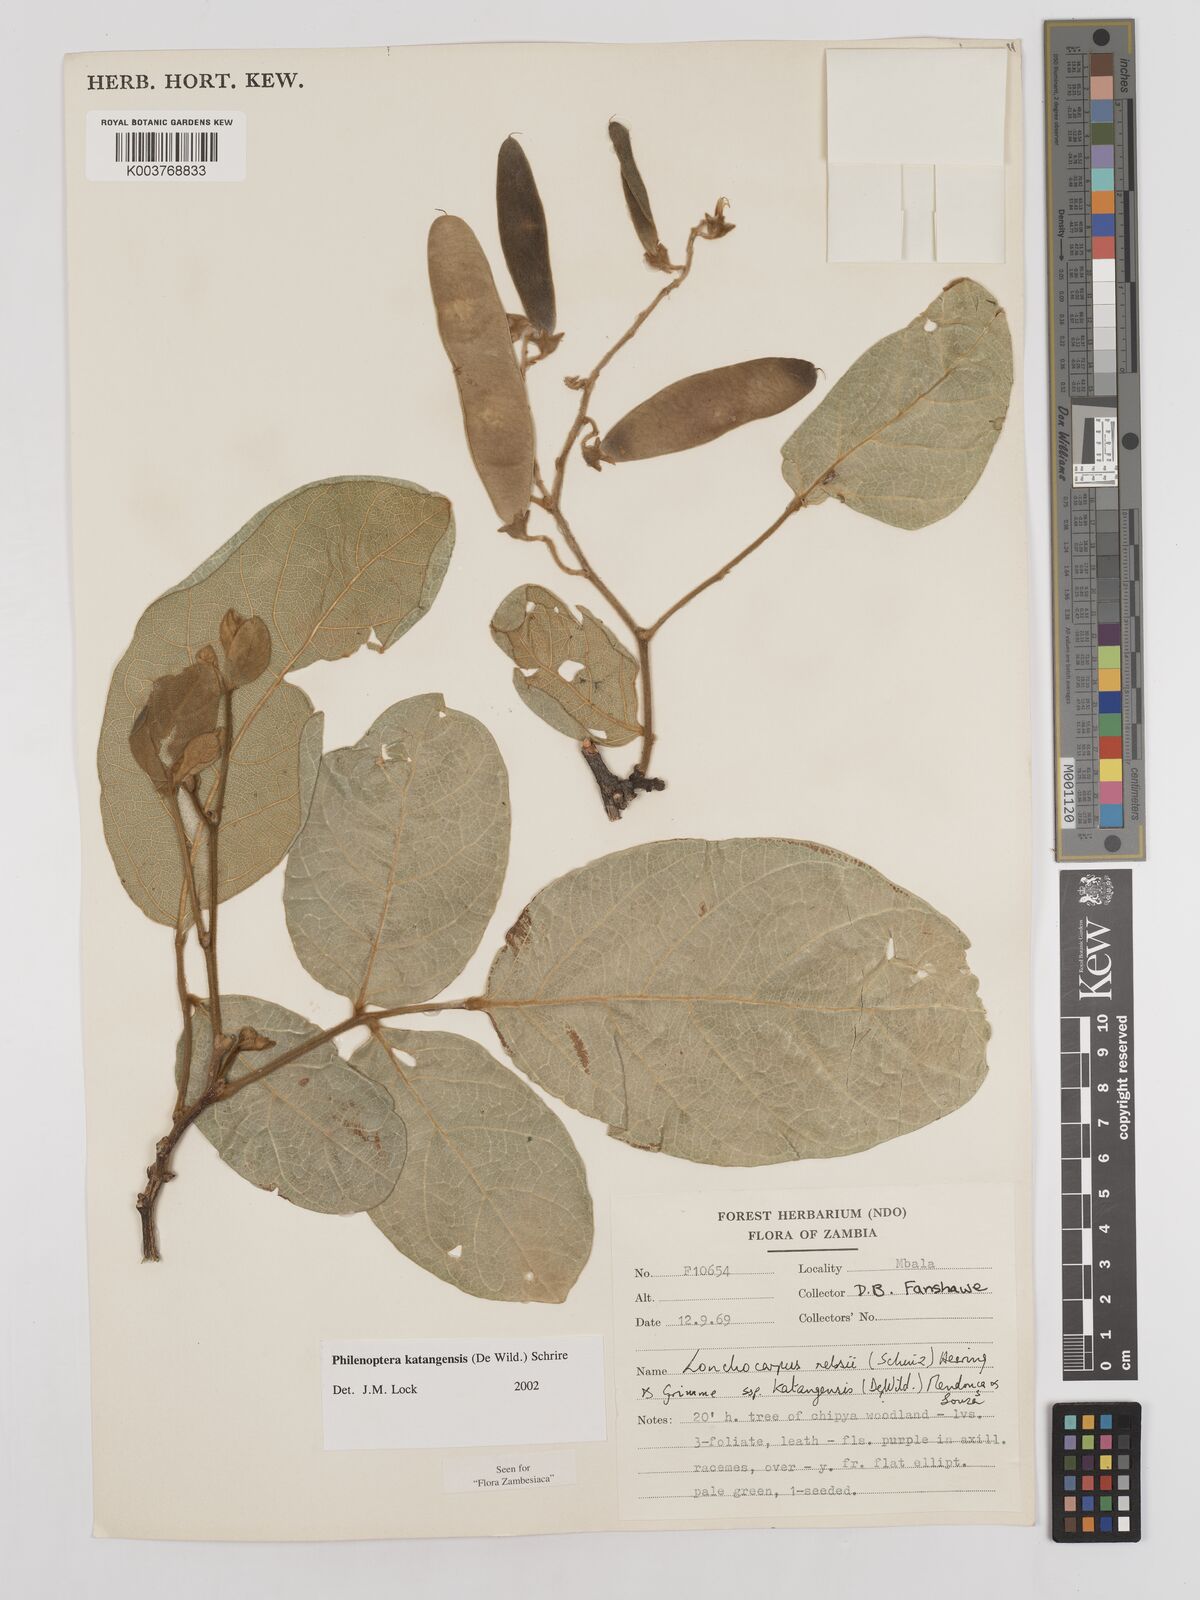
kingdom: Plantae
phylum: Tracheophyta
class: Magnoliopsida
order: Fabales
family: Fabaceae
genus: Philenoptera
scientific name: Philenoptera katangensis
